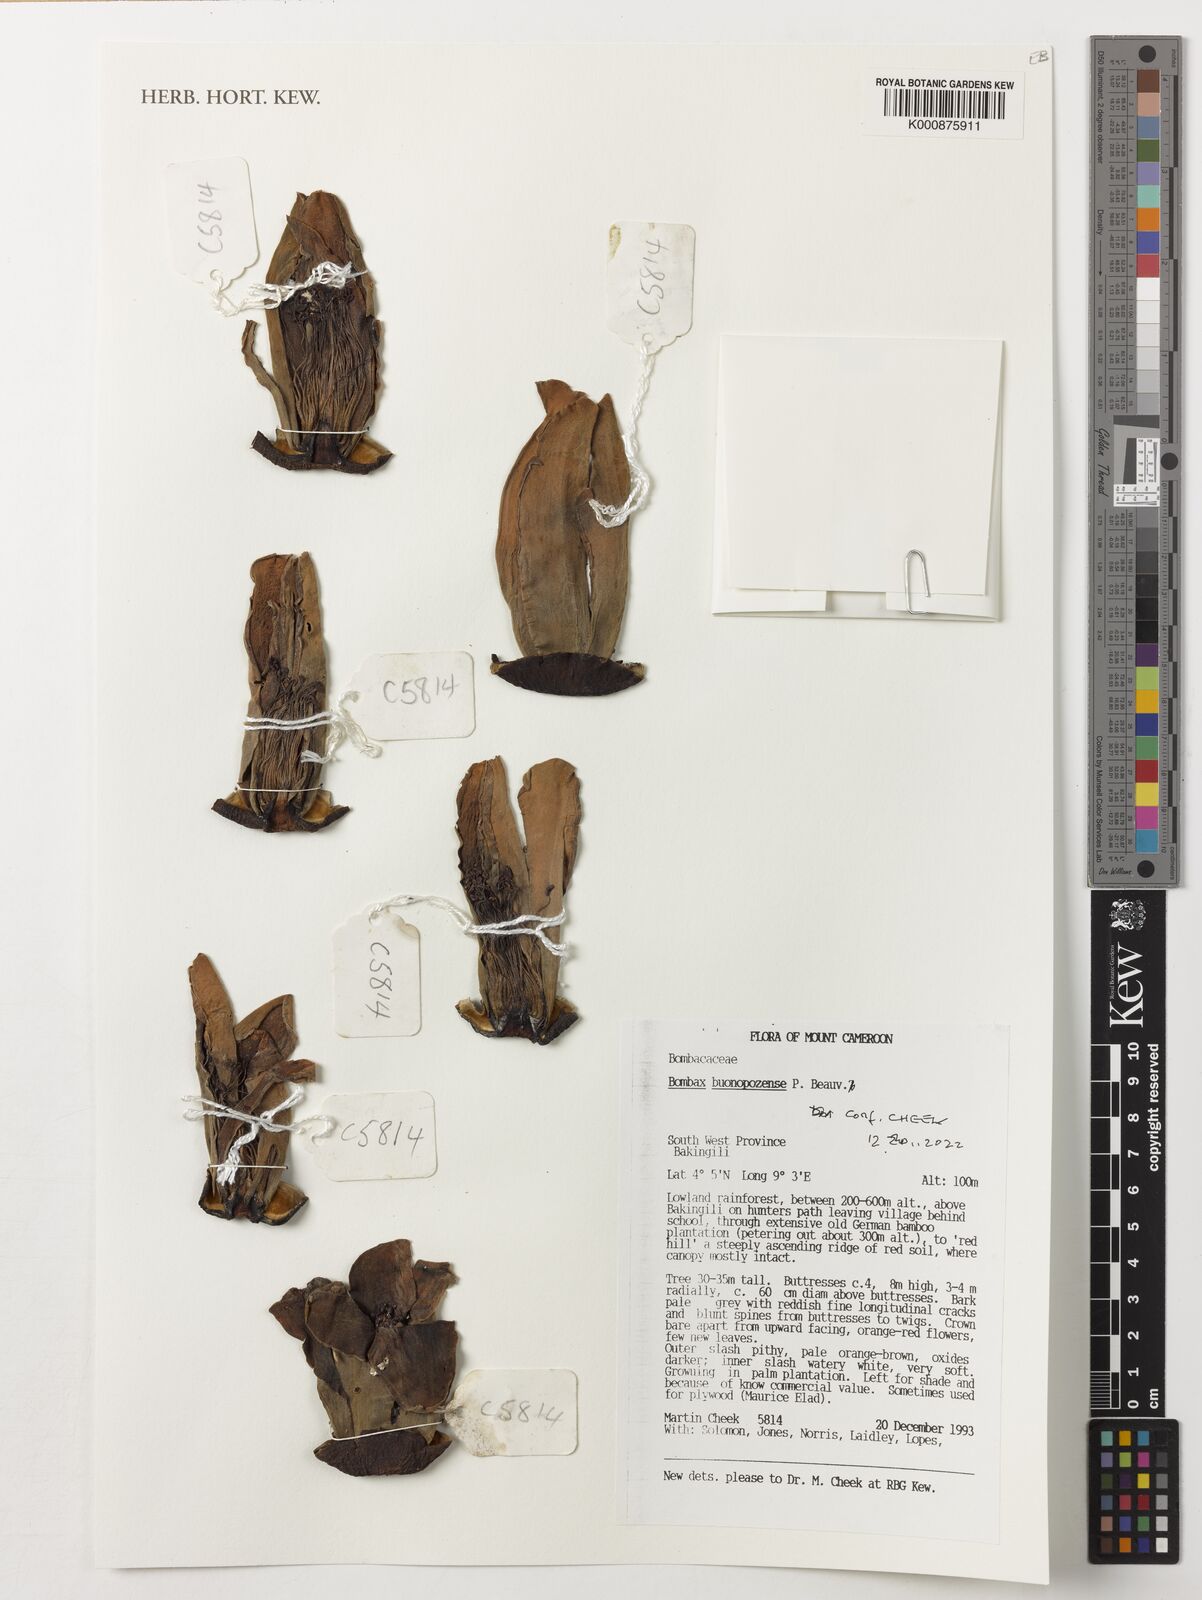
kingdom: Plantae
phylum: Tracheophyta
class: Magnoliopsida
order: Malvales
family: Malvaceae
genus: Bombax
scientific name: Bombax buonopozense
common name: Gold coast bombax
